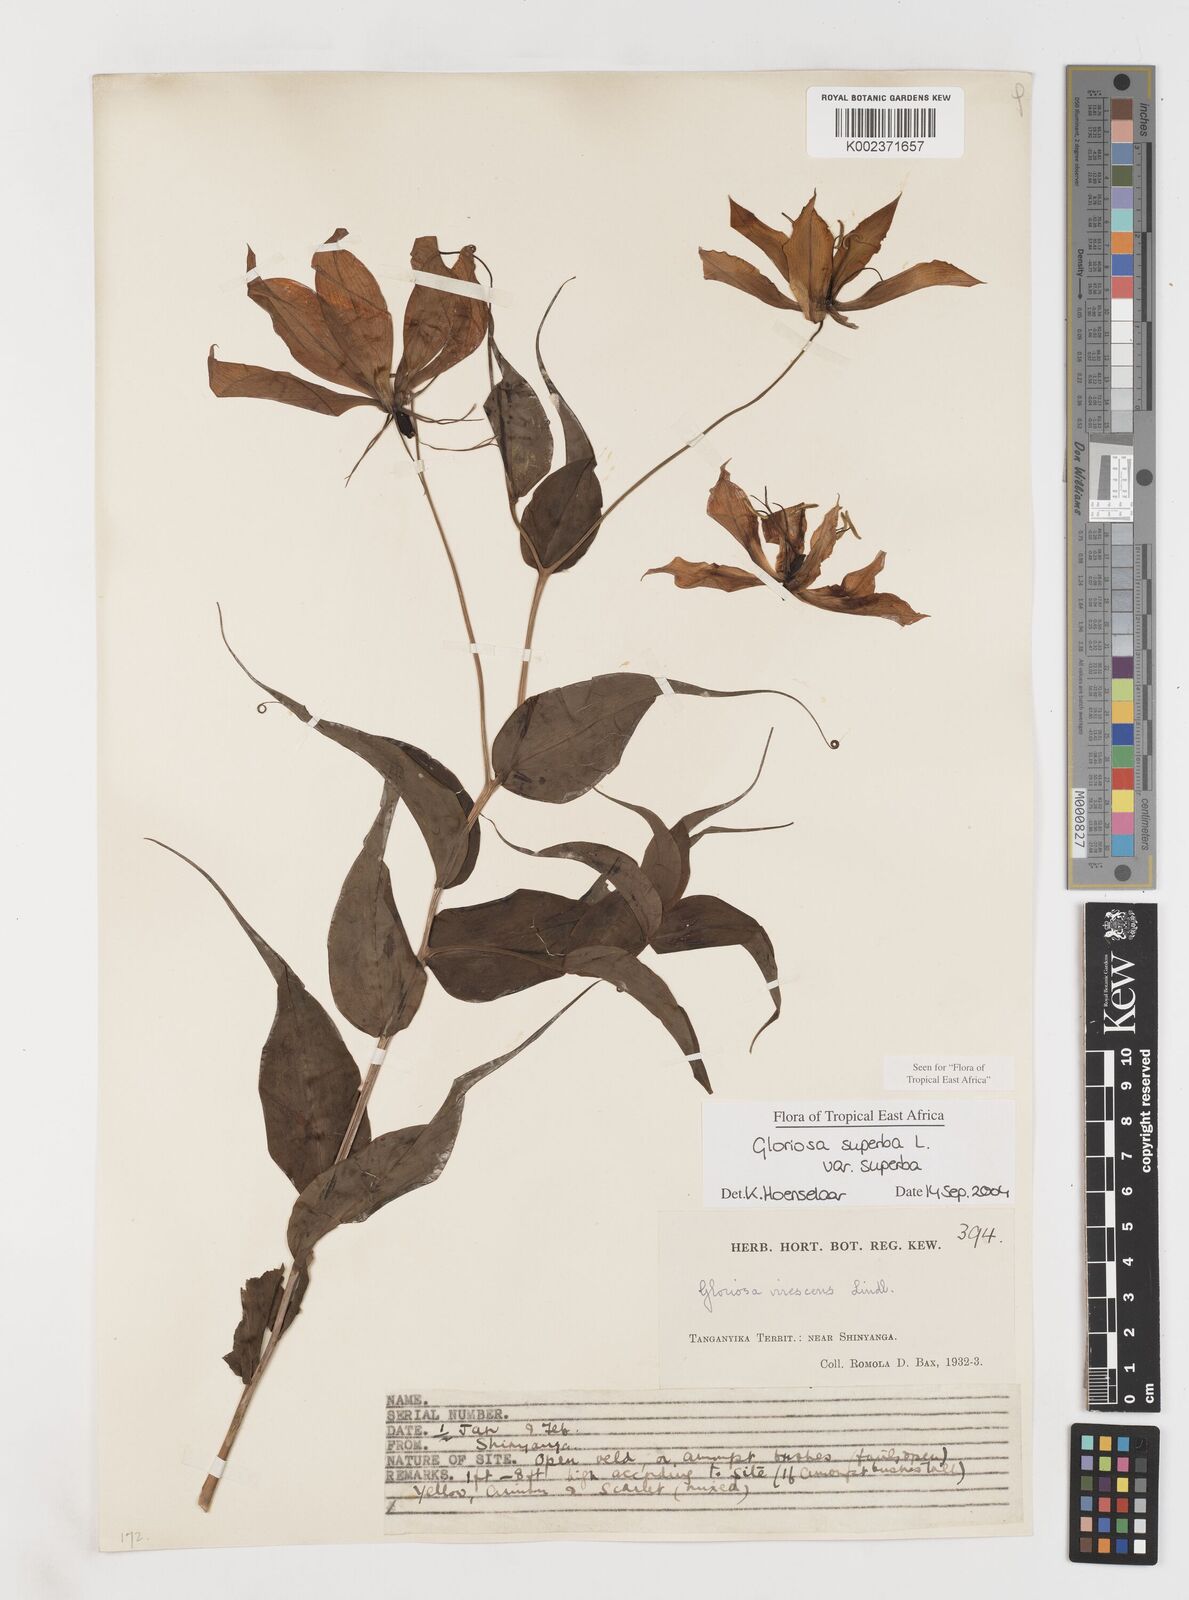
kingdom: Plantae
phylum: Tracheophyta
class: Liliopsida
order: Liliales
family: Colchicaceae
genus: Gloriosa
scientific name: Gloriosa simplex
